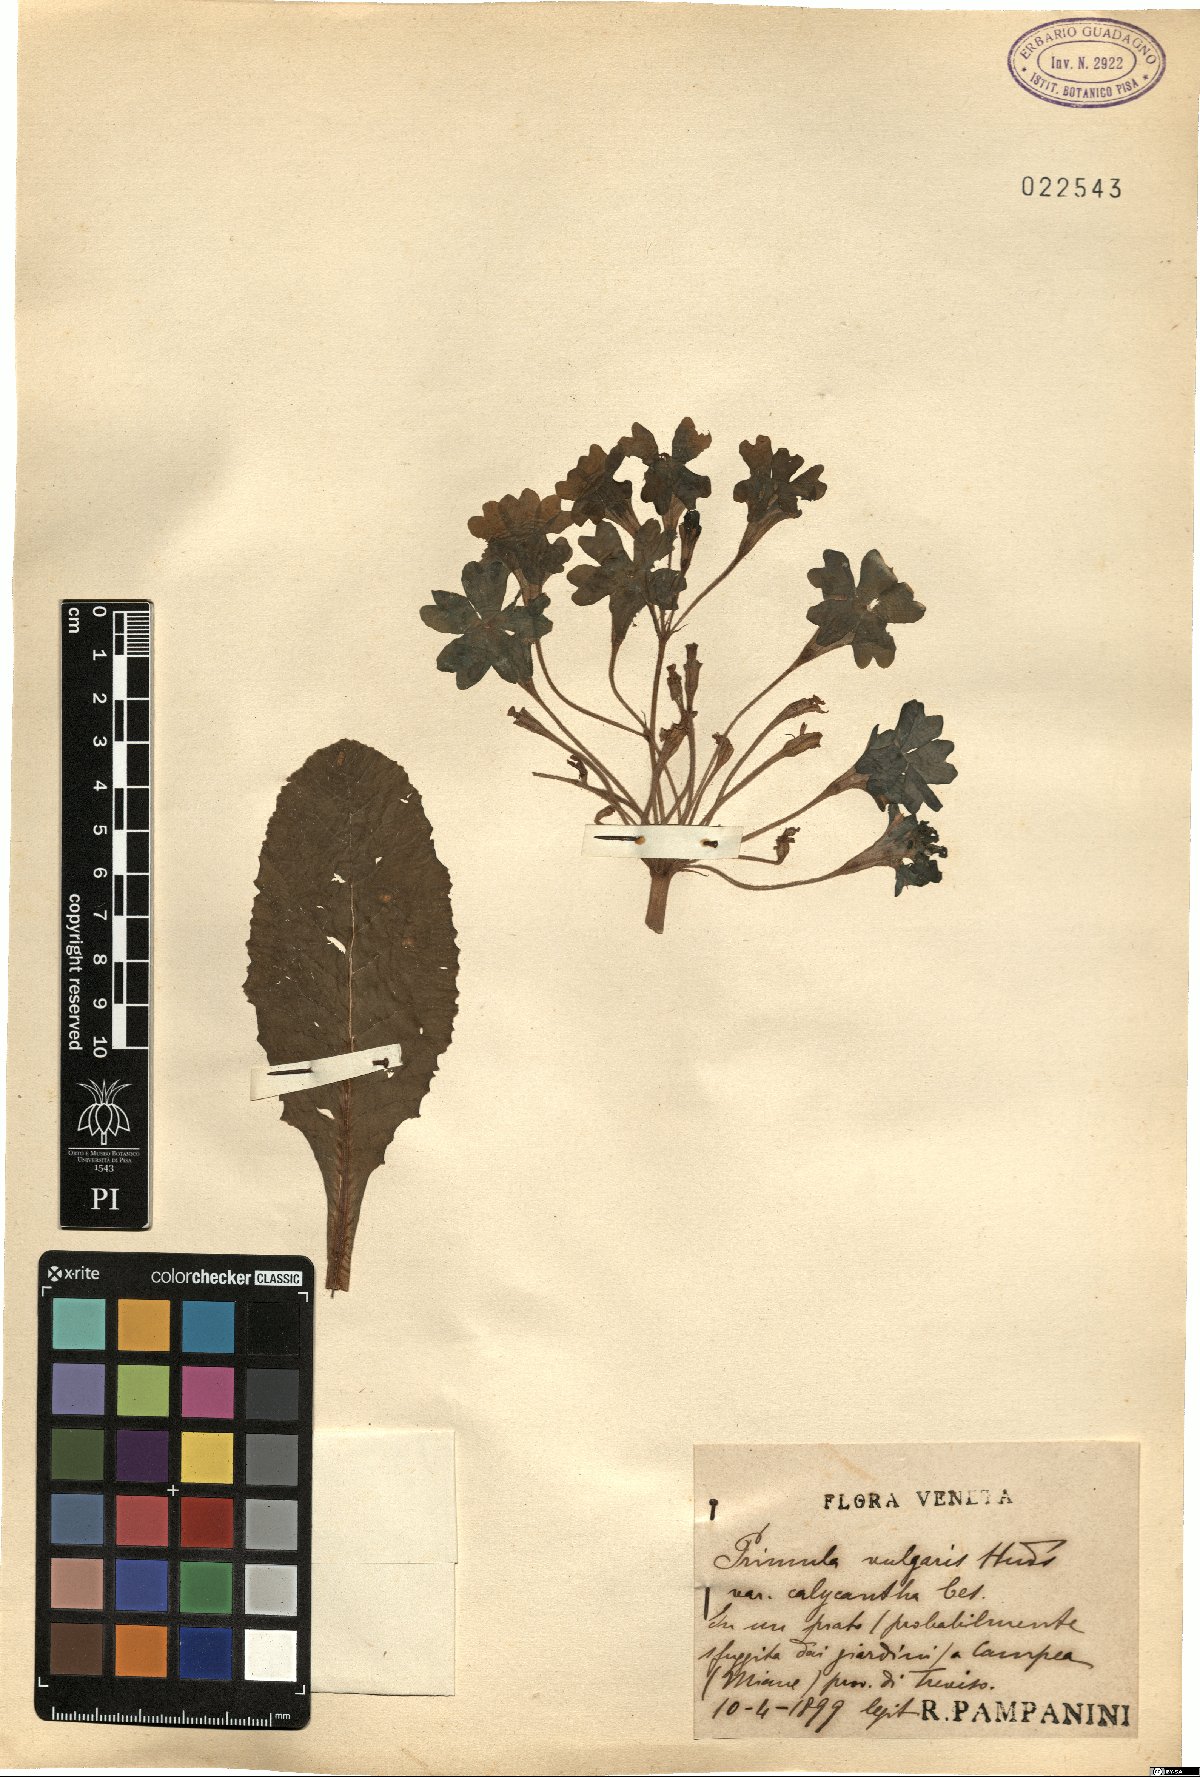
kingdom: Plantae
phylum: Tracheophyta
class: Magnoliopsida
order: Ericales
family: Primulaceae
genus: Primula
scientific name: Primula vulgaris
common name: Primrose
